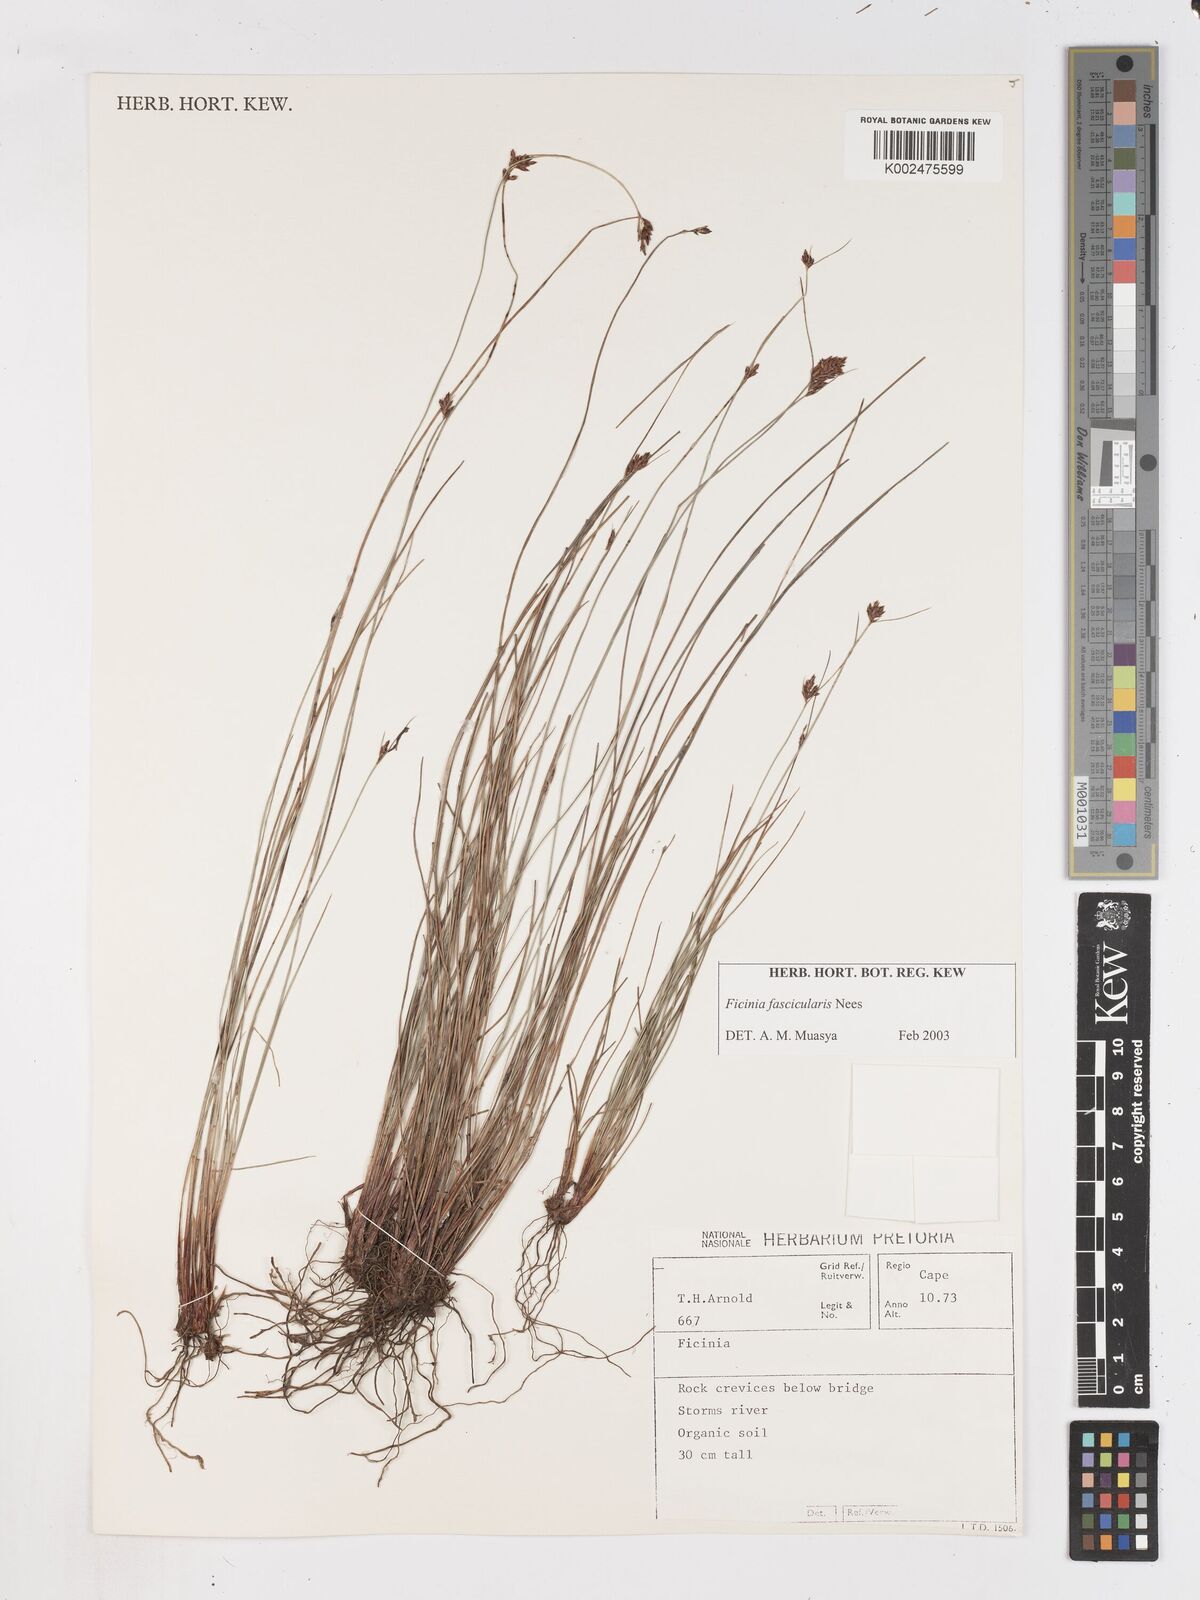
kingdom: Plantae
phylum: Tracheophyta
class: Liliopsida
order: Poales
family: Cyperaceae
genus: Ficinia
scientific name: Ficinia fascicularis
